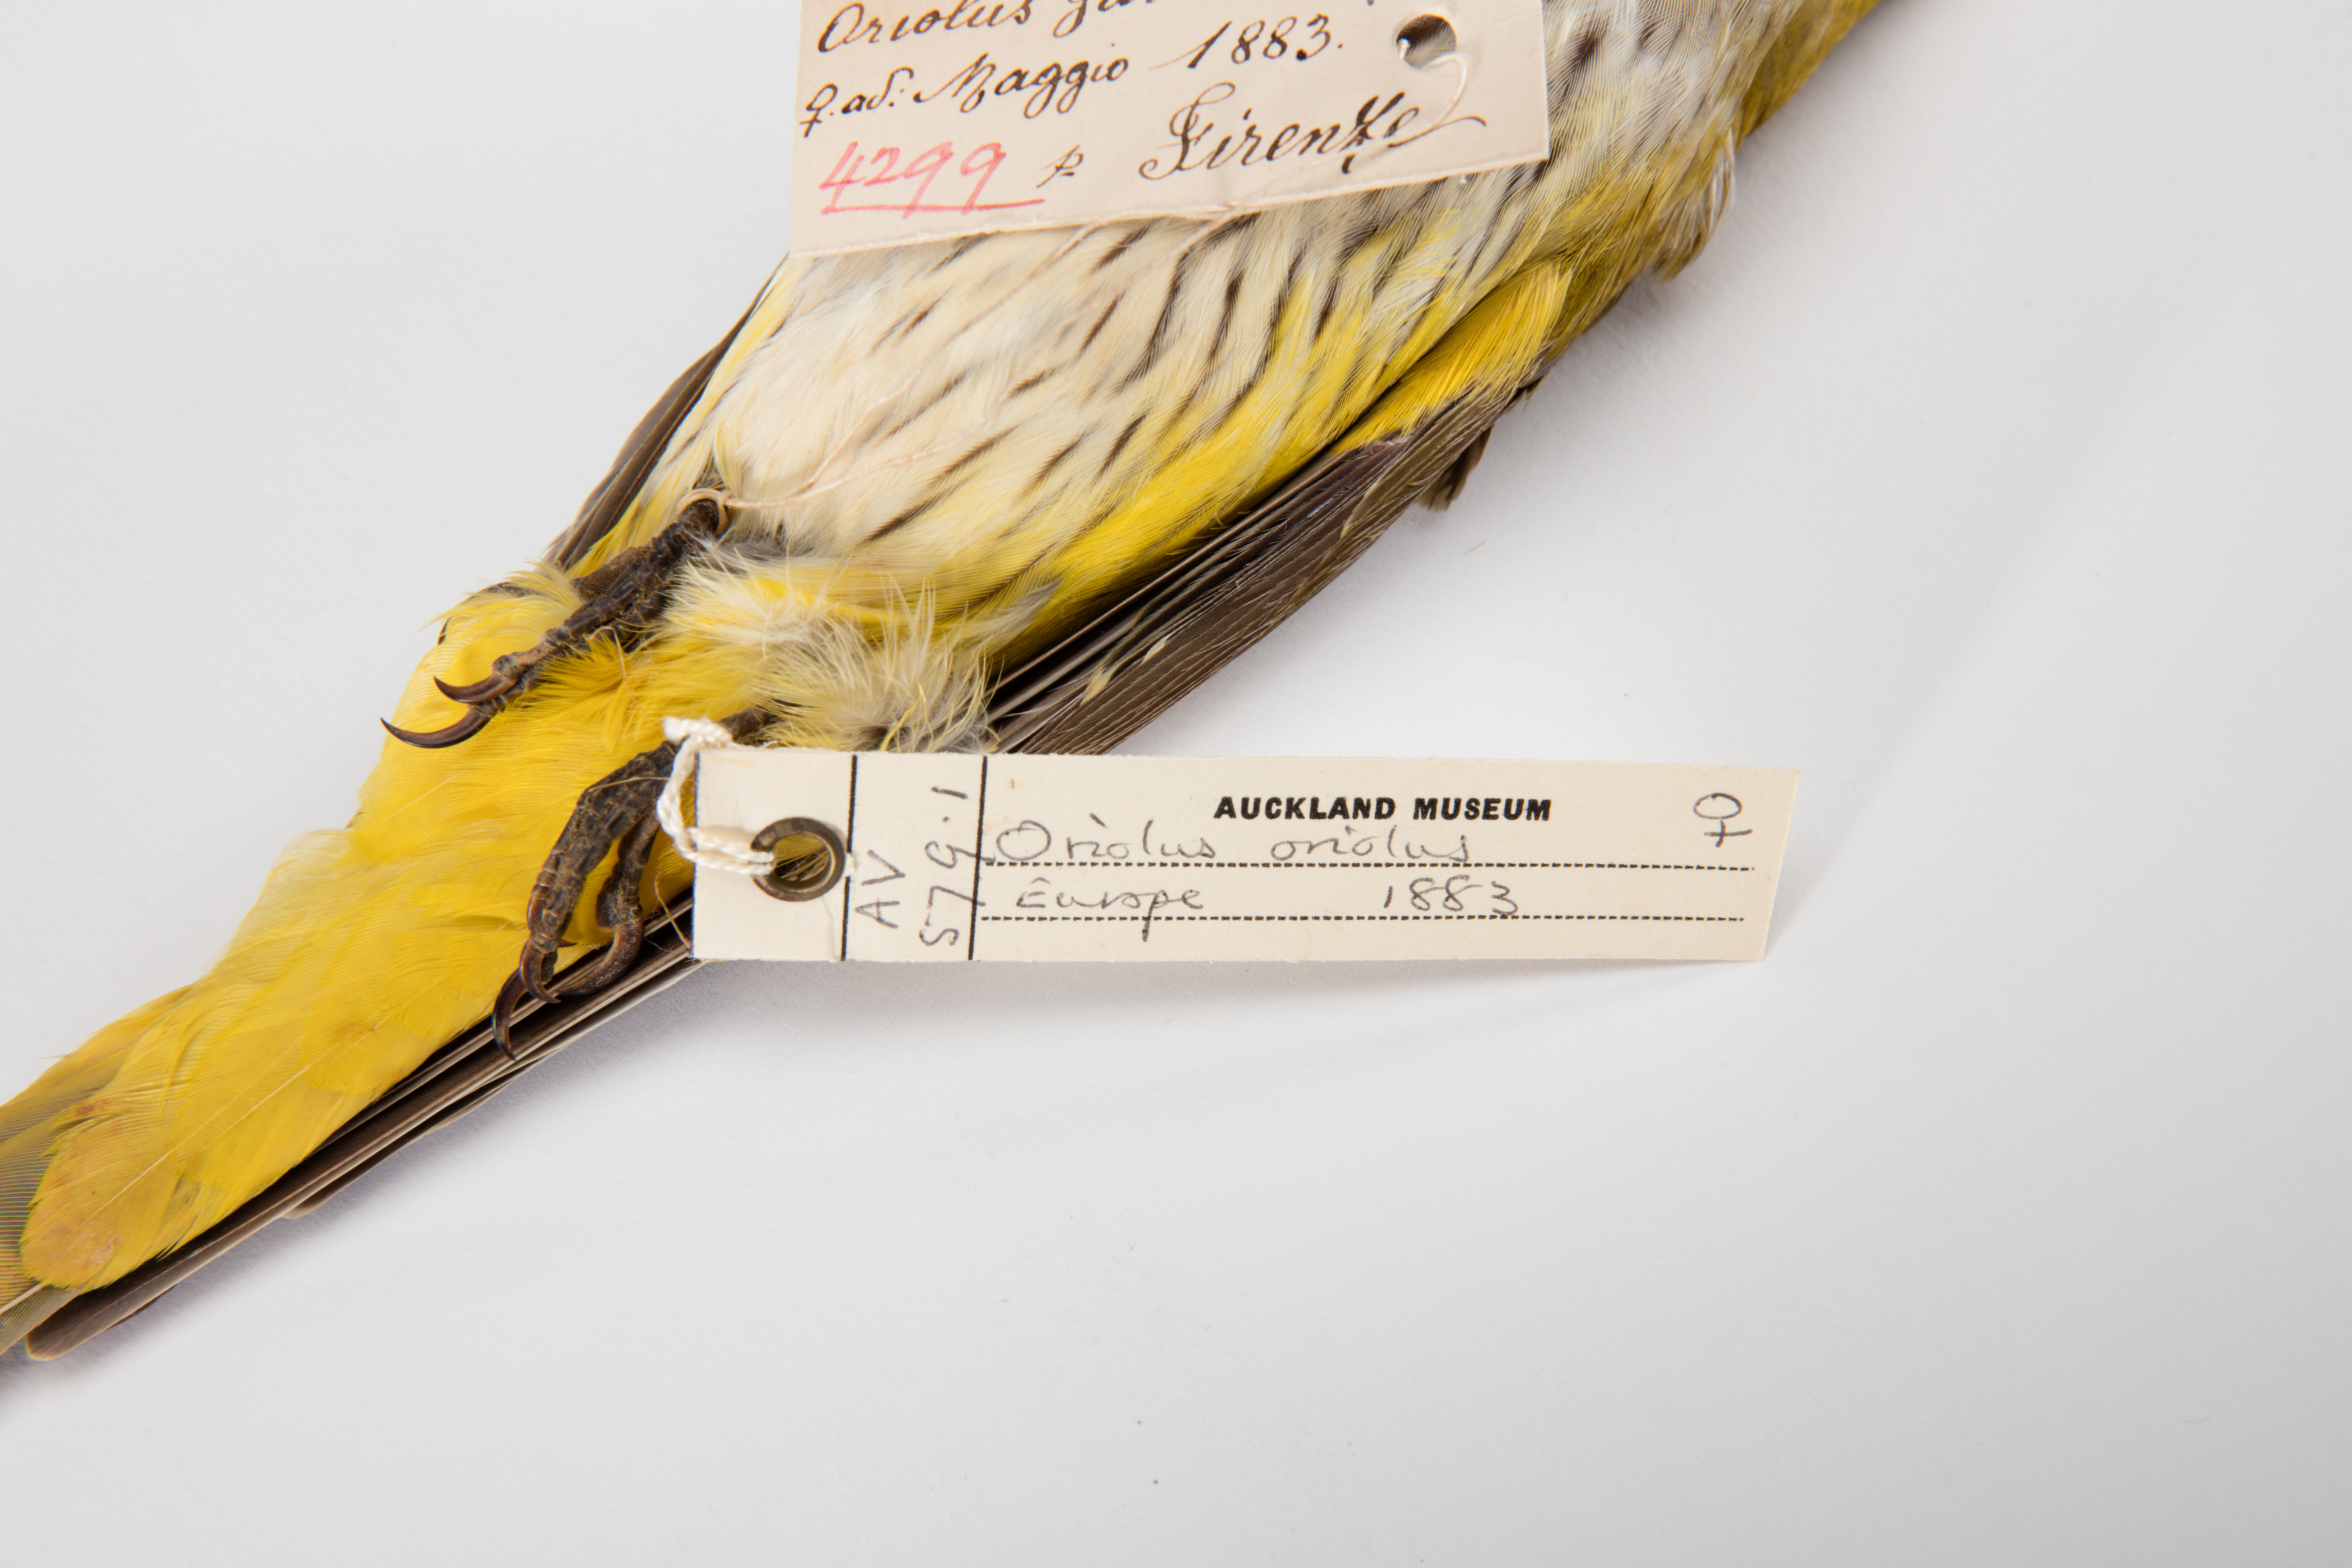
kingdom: Animalia
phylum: Chordata
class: Aves
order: Passeriformes
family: Oriolidae
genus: Oriolus
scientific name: Oriolus oriolus
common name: Eurasian golden oriole
